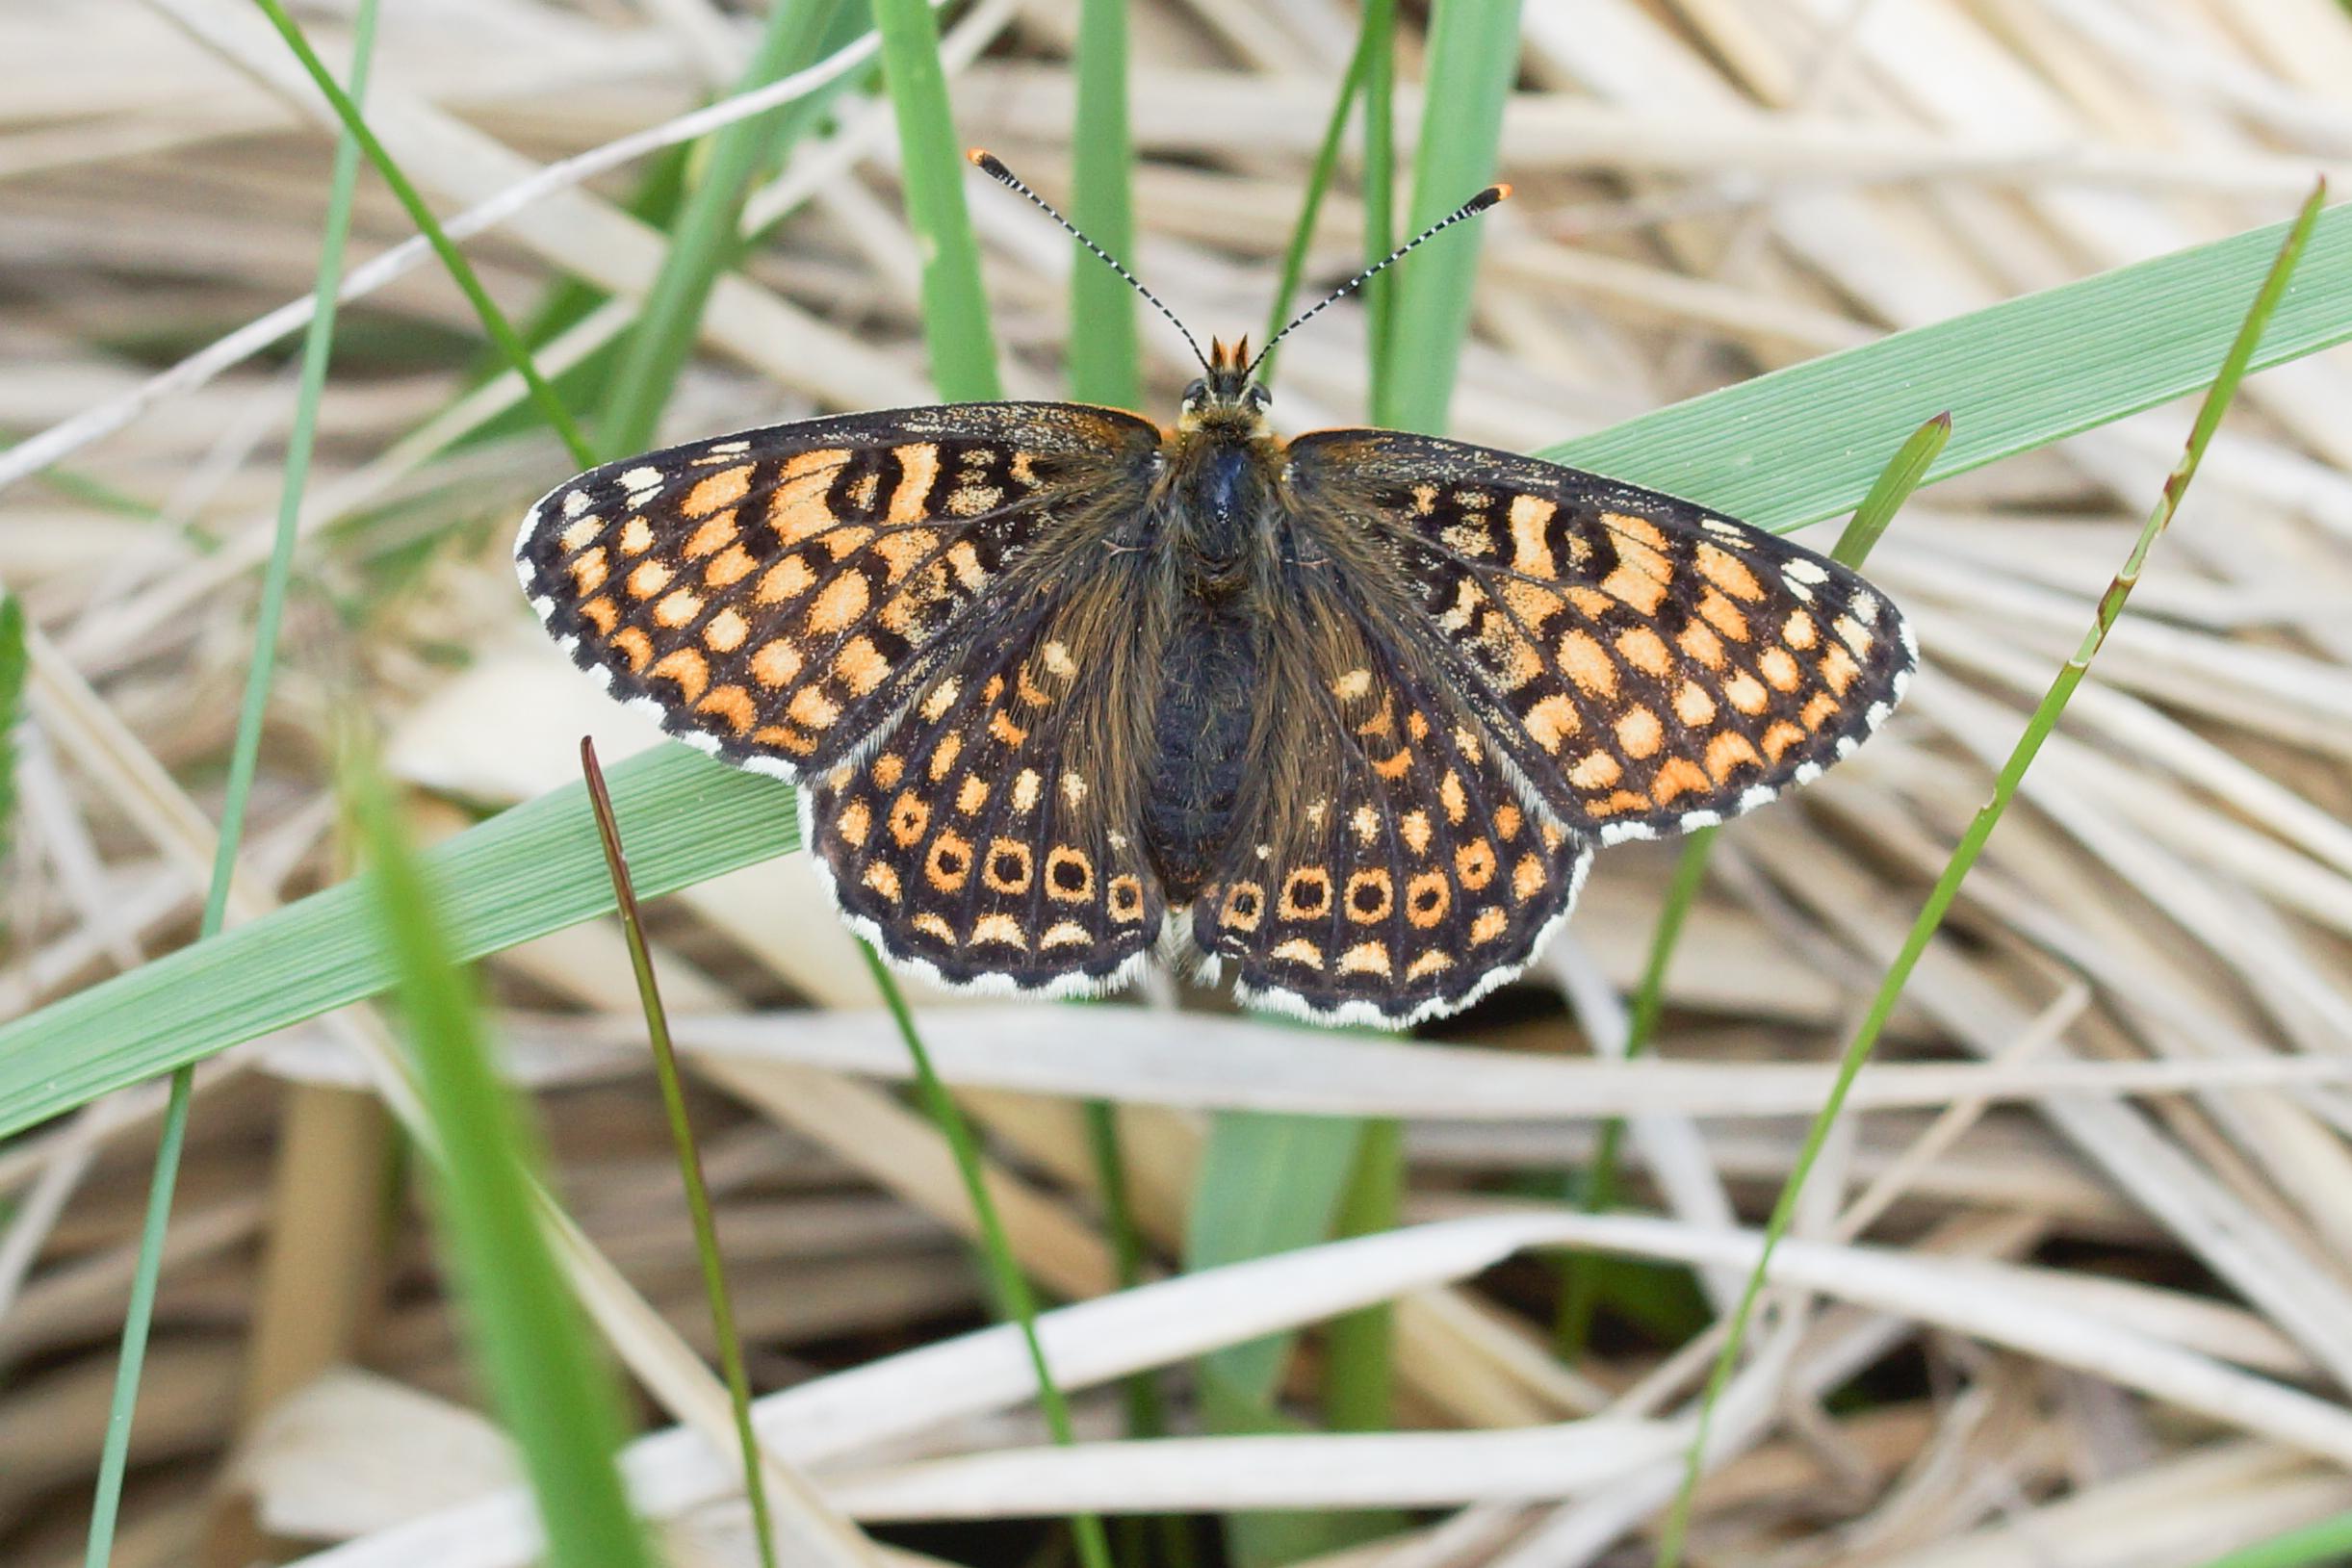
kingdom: Animalia
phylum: Arthropoda
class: Insecta
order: Lepidoptera
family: Nymphalidae
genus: Melitaea
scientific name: Melitaea cinxia
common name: Okkergul pletvinge
